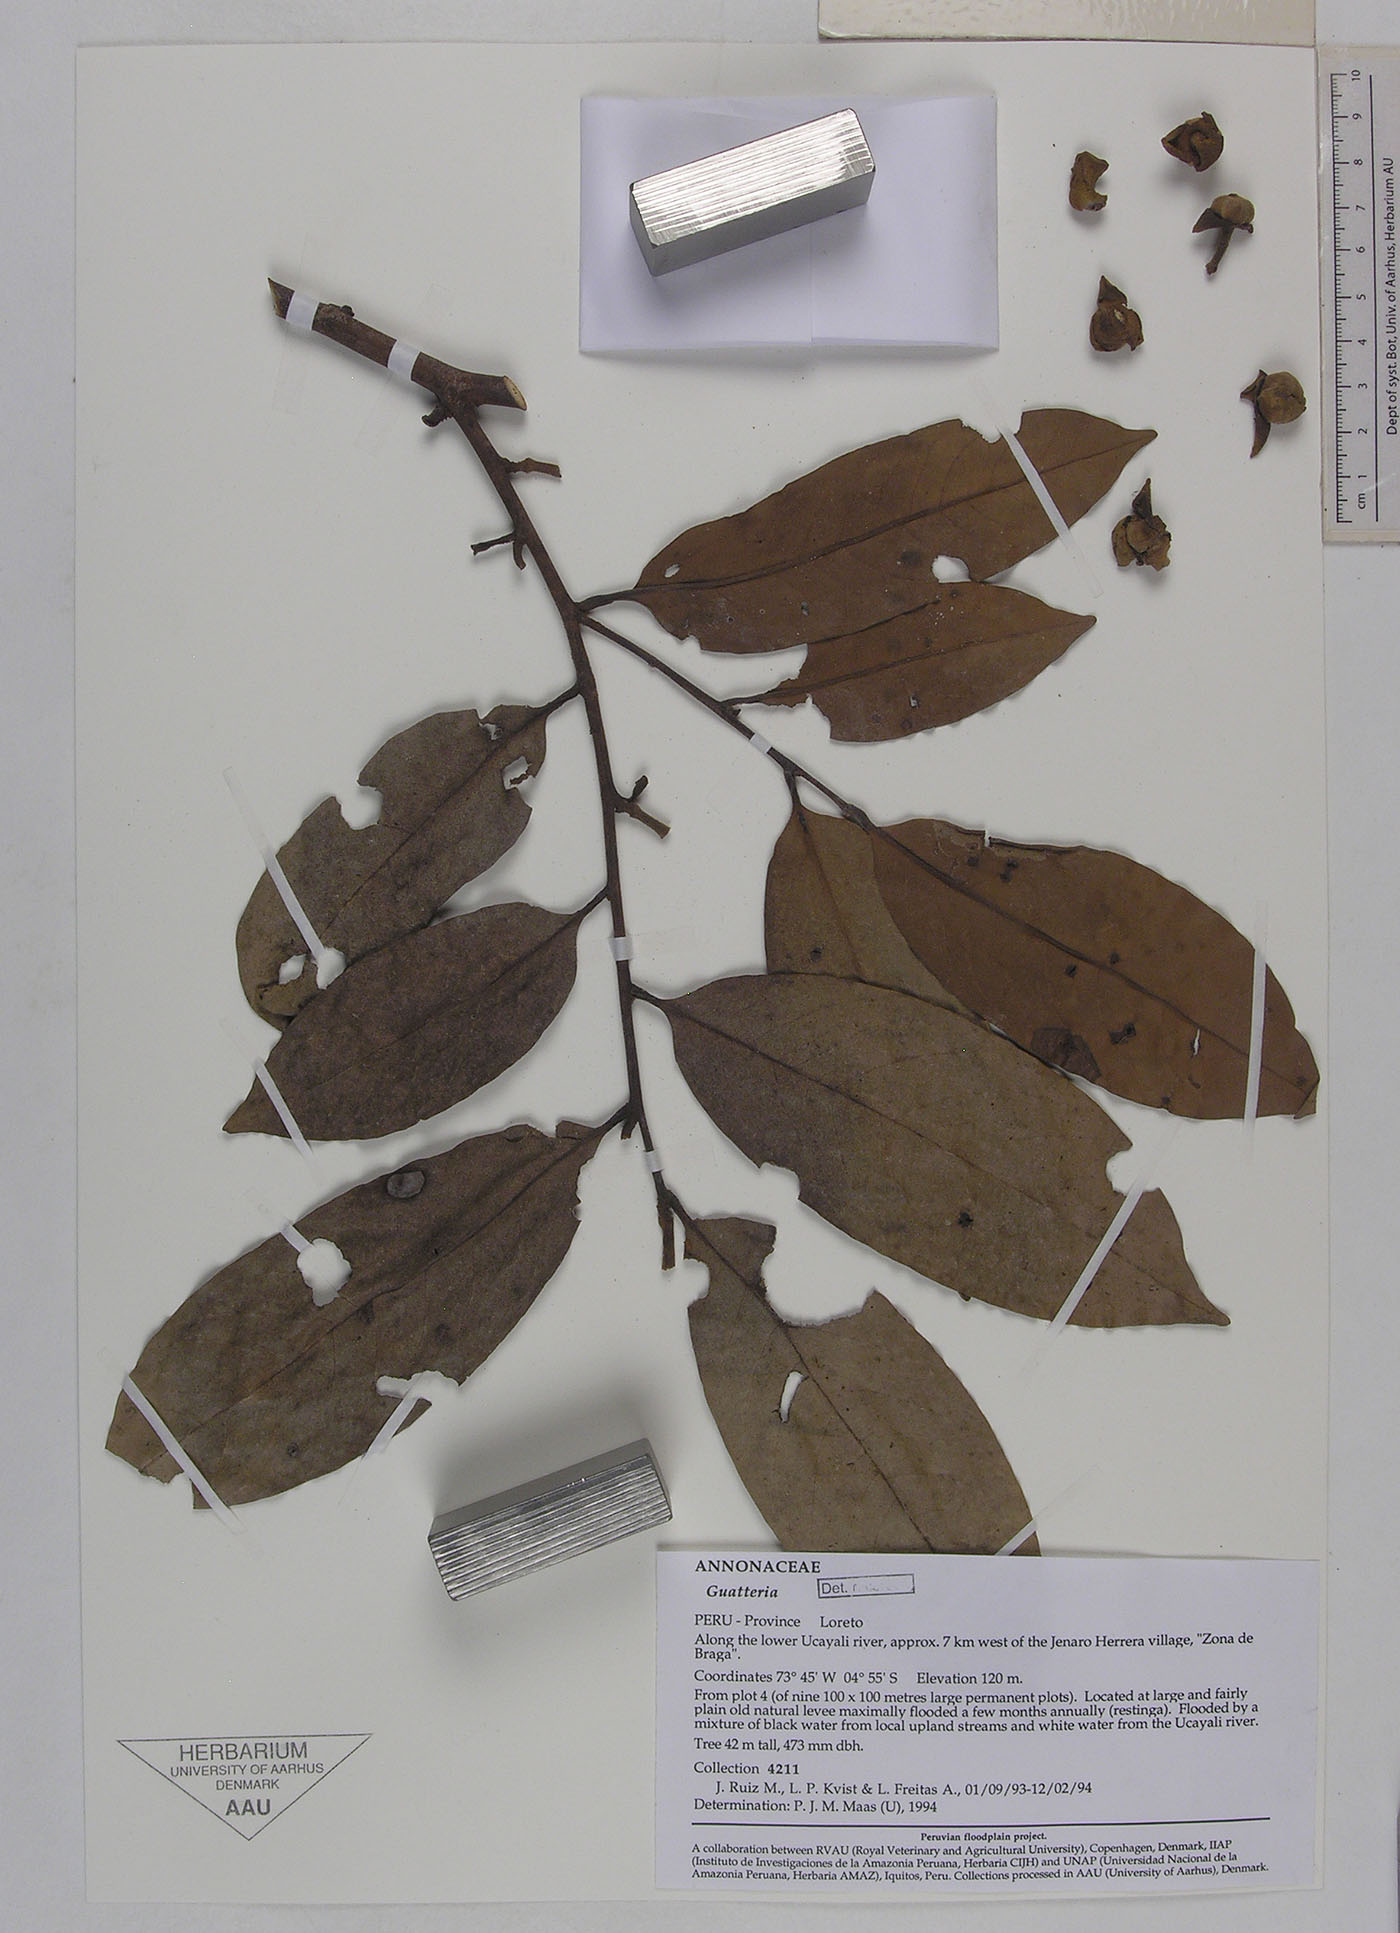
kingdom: Plantae
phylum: Tracheophyta
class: Magnoliopsida
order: Magnoliales
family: Annonaceae
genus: Guatteria
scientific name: Guatteria spectabilis
